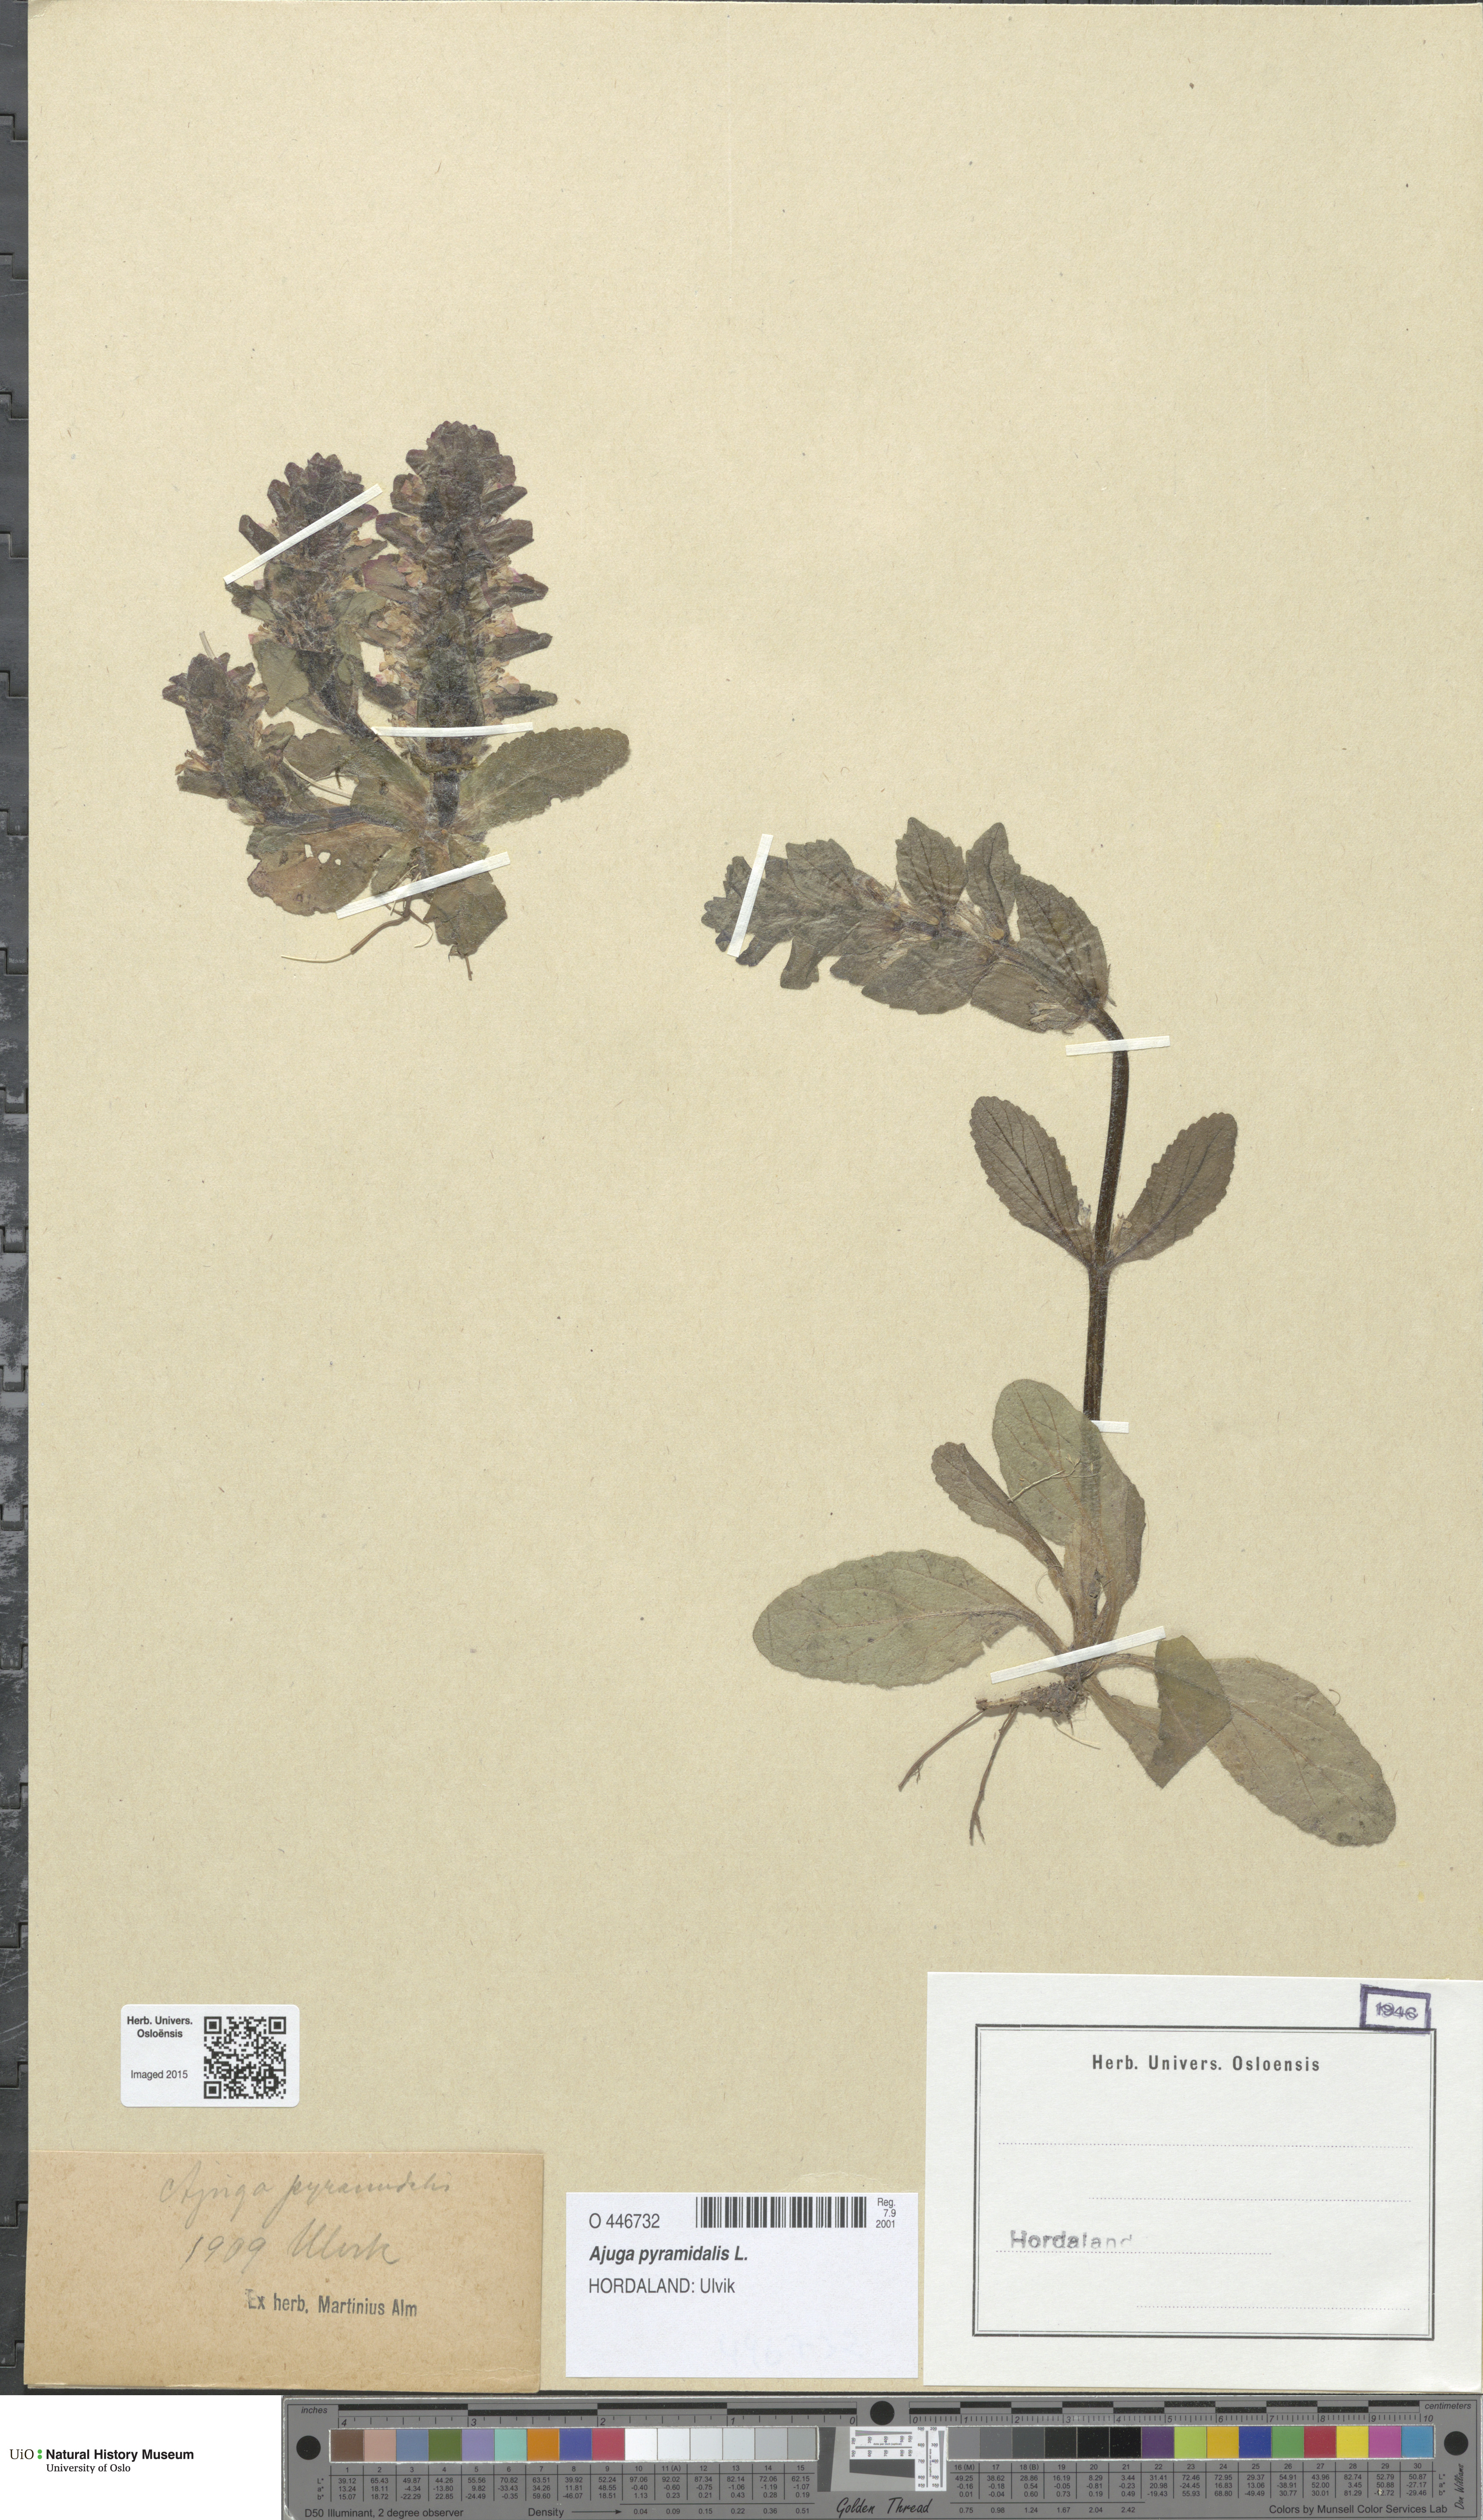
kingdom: Plantae
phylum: Tracheophyta
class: Magnoliopsida
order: Lamiales
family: Lamiaceae
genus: Ajuga
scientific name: Ajuga pyramidalis
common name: Pyramid bugle
